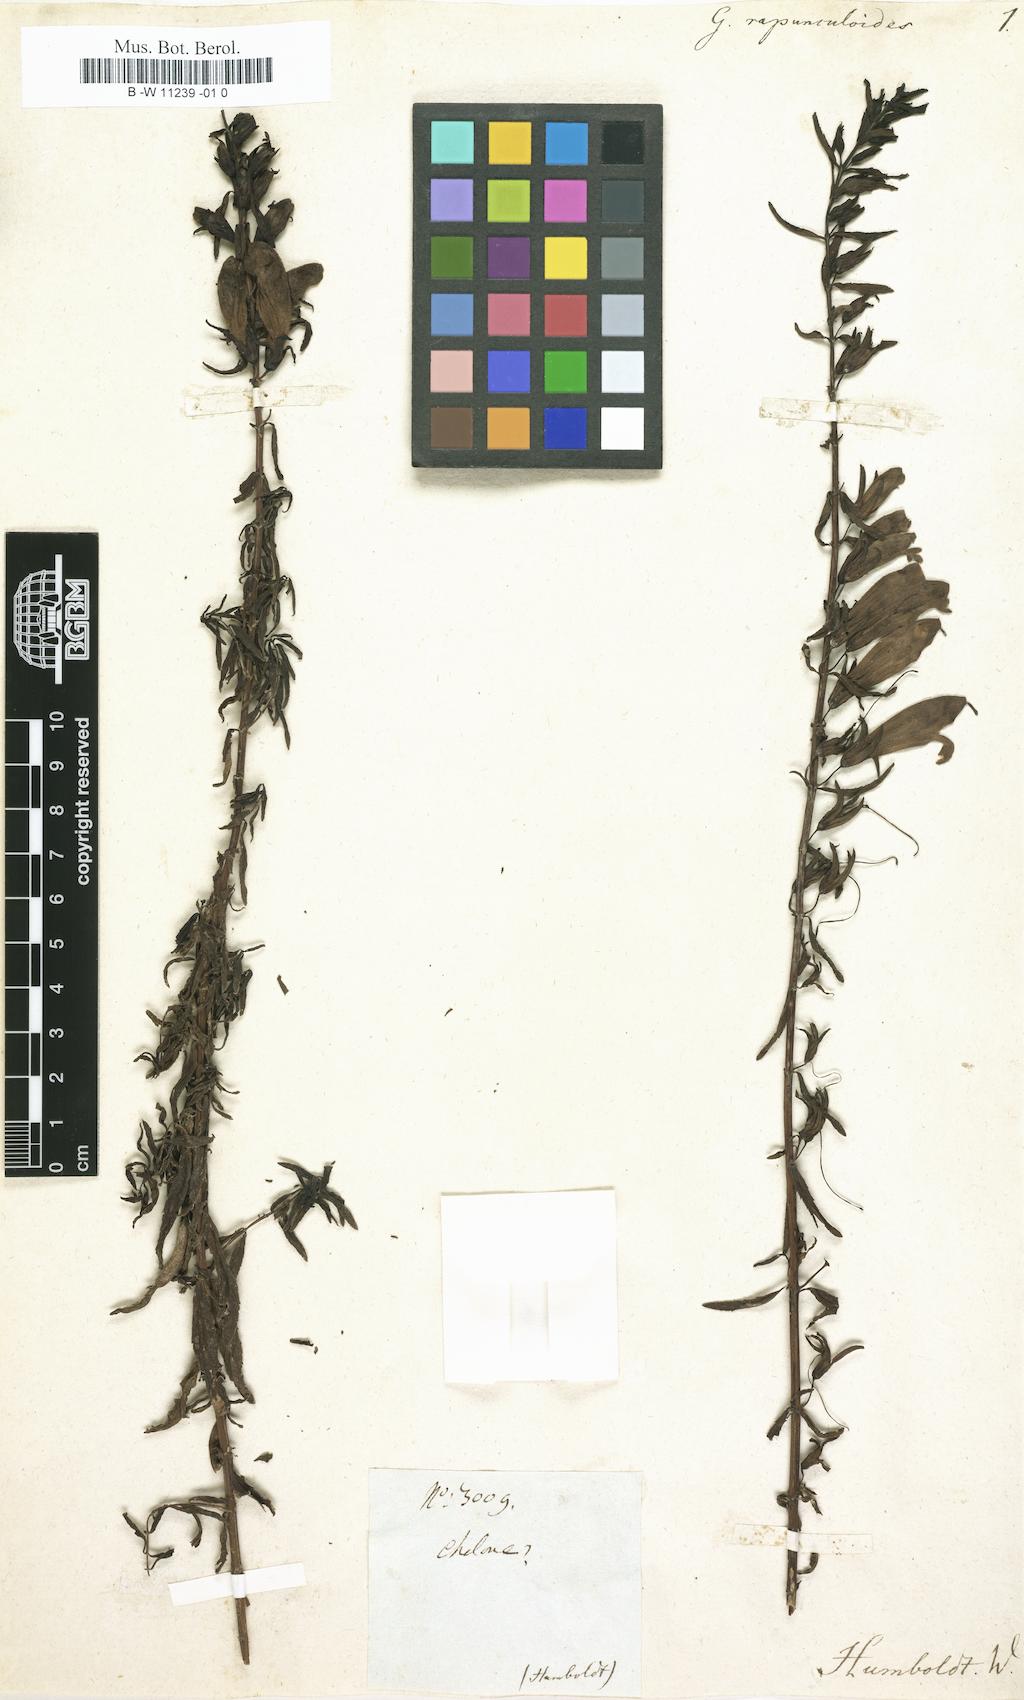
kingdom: Plantae
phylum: Tracheophyta
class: Magnoliopsida
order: Lamiales
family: Scrophulariaceae
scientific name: Scrophulariaceae
